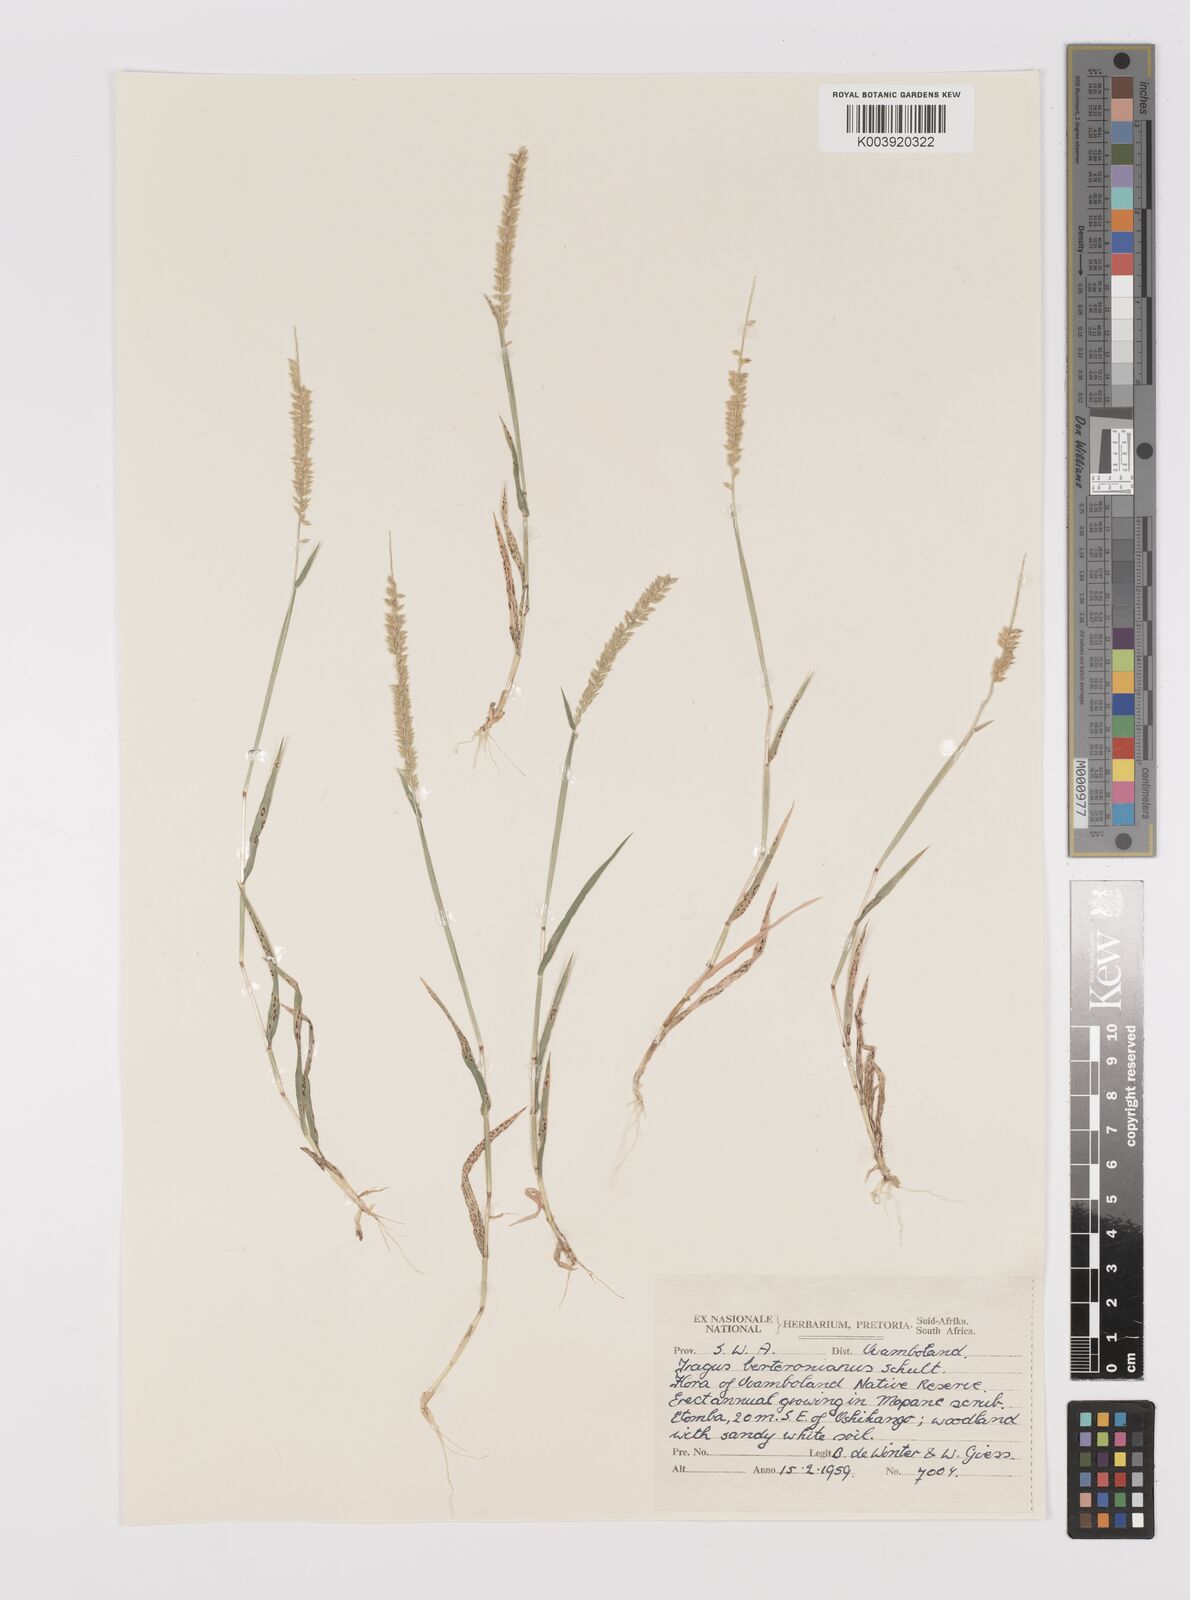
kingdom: Plantae
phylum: Tracheophyta
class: Liliopsida
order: Poales
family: Poaceae
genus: Tragus
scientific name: Tragus berteronianus
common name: African bur-grass
